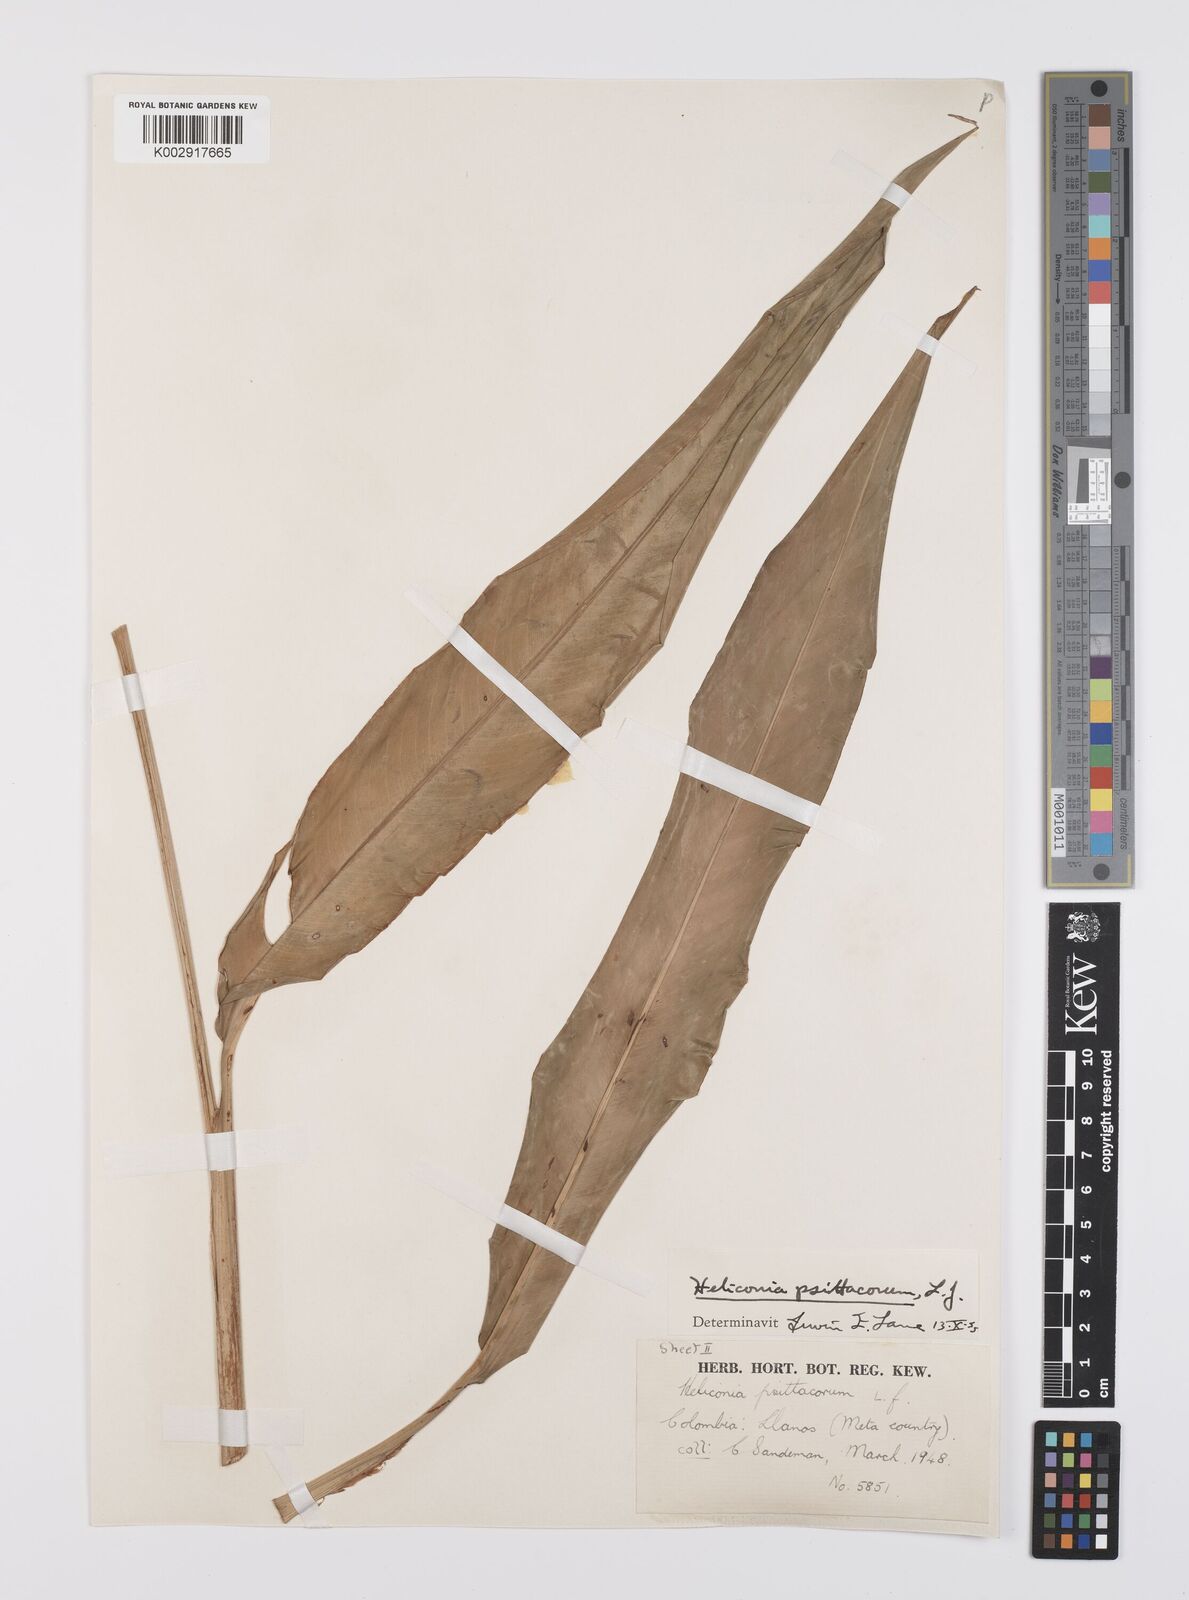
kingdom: Plantae
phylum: Tracheophyta
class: Liliopsida
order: Zingiberales
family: Heliconiaceae
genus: Heliconia
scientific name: Heliconia psittacorum
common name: Parrot's-flower
